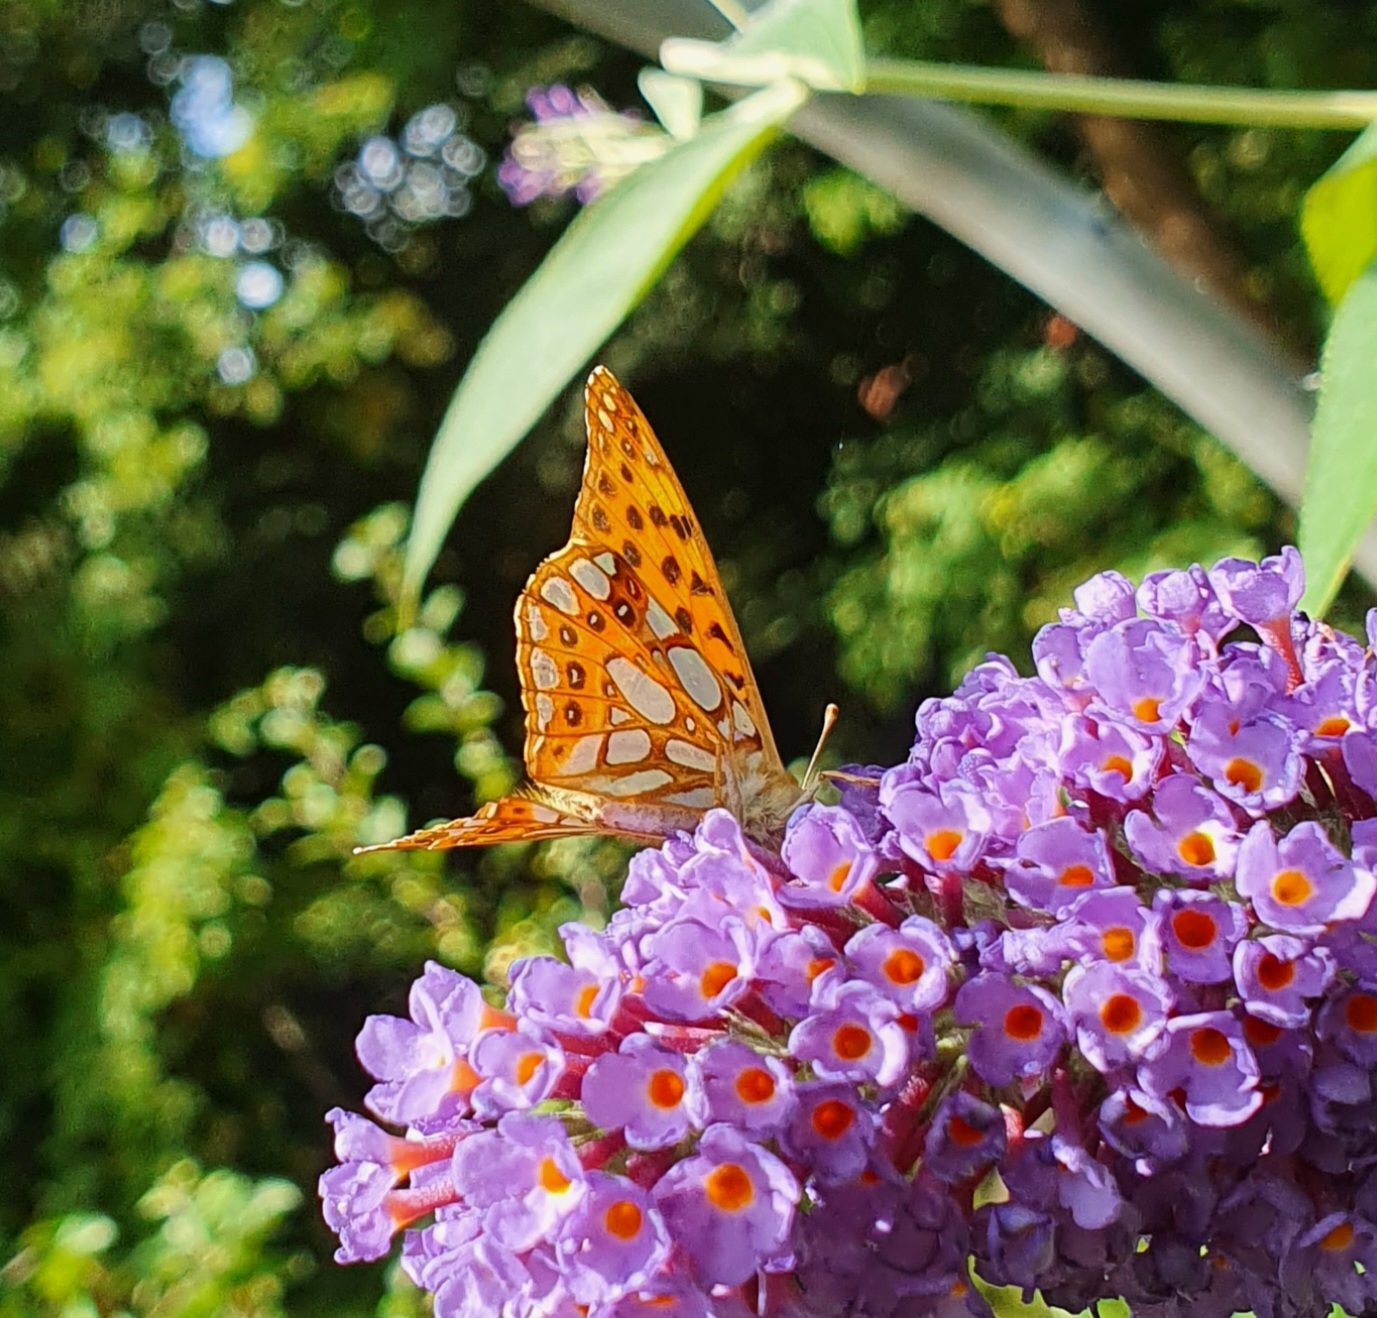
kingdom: Animalia
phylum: Arthropoda
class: Insecta
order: Lepidoptera
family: Nymphalidae
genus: Issoria
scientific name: Issoria lathonia
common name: Storplettet perlemorsommerfugl
